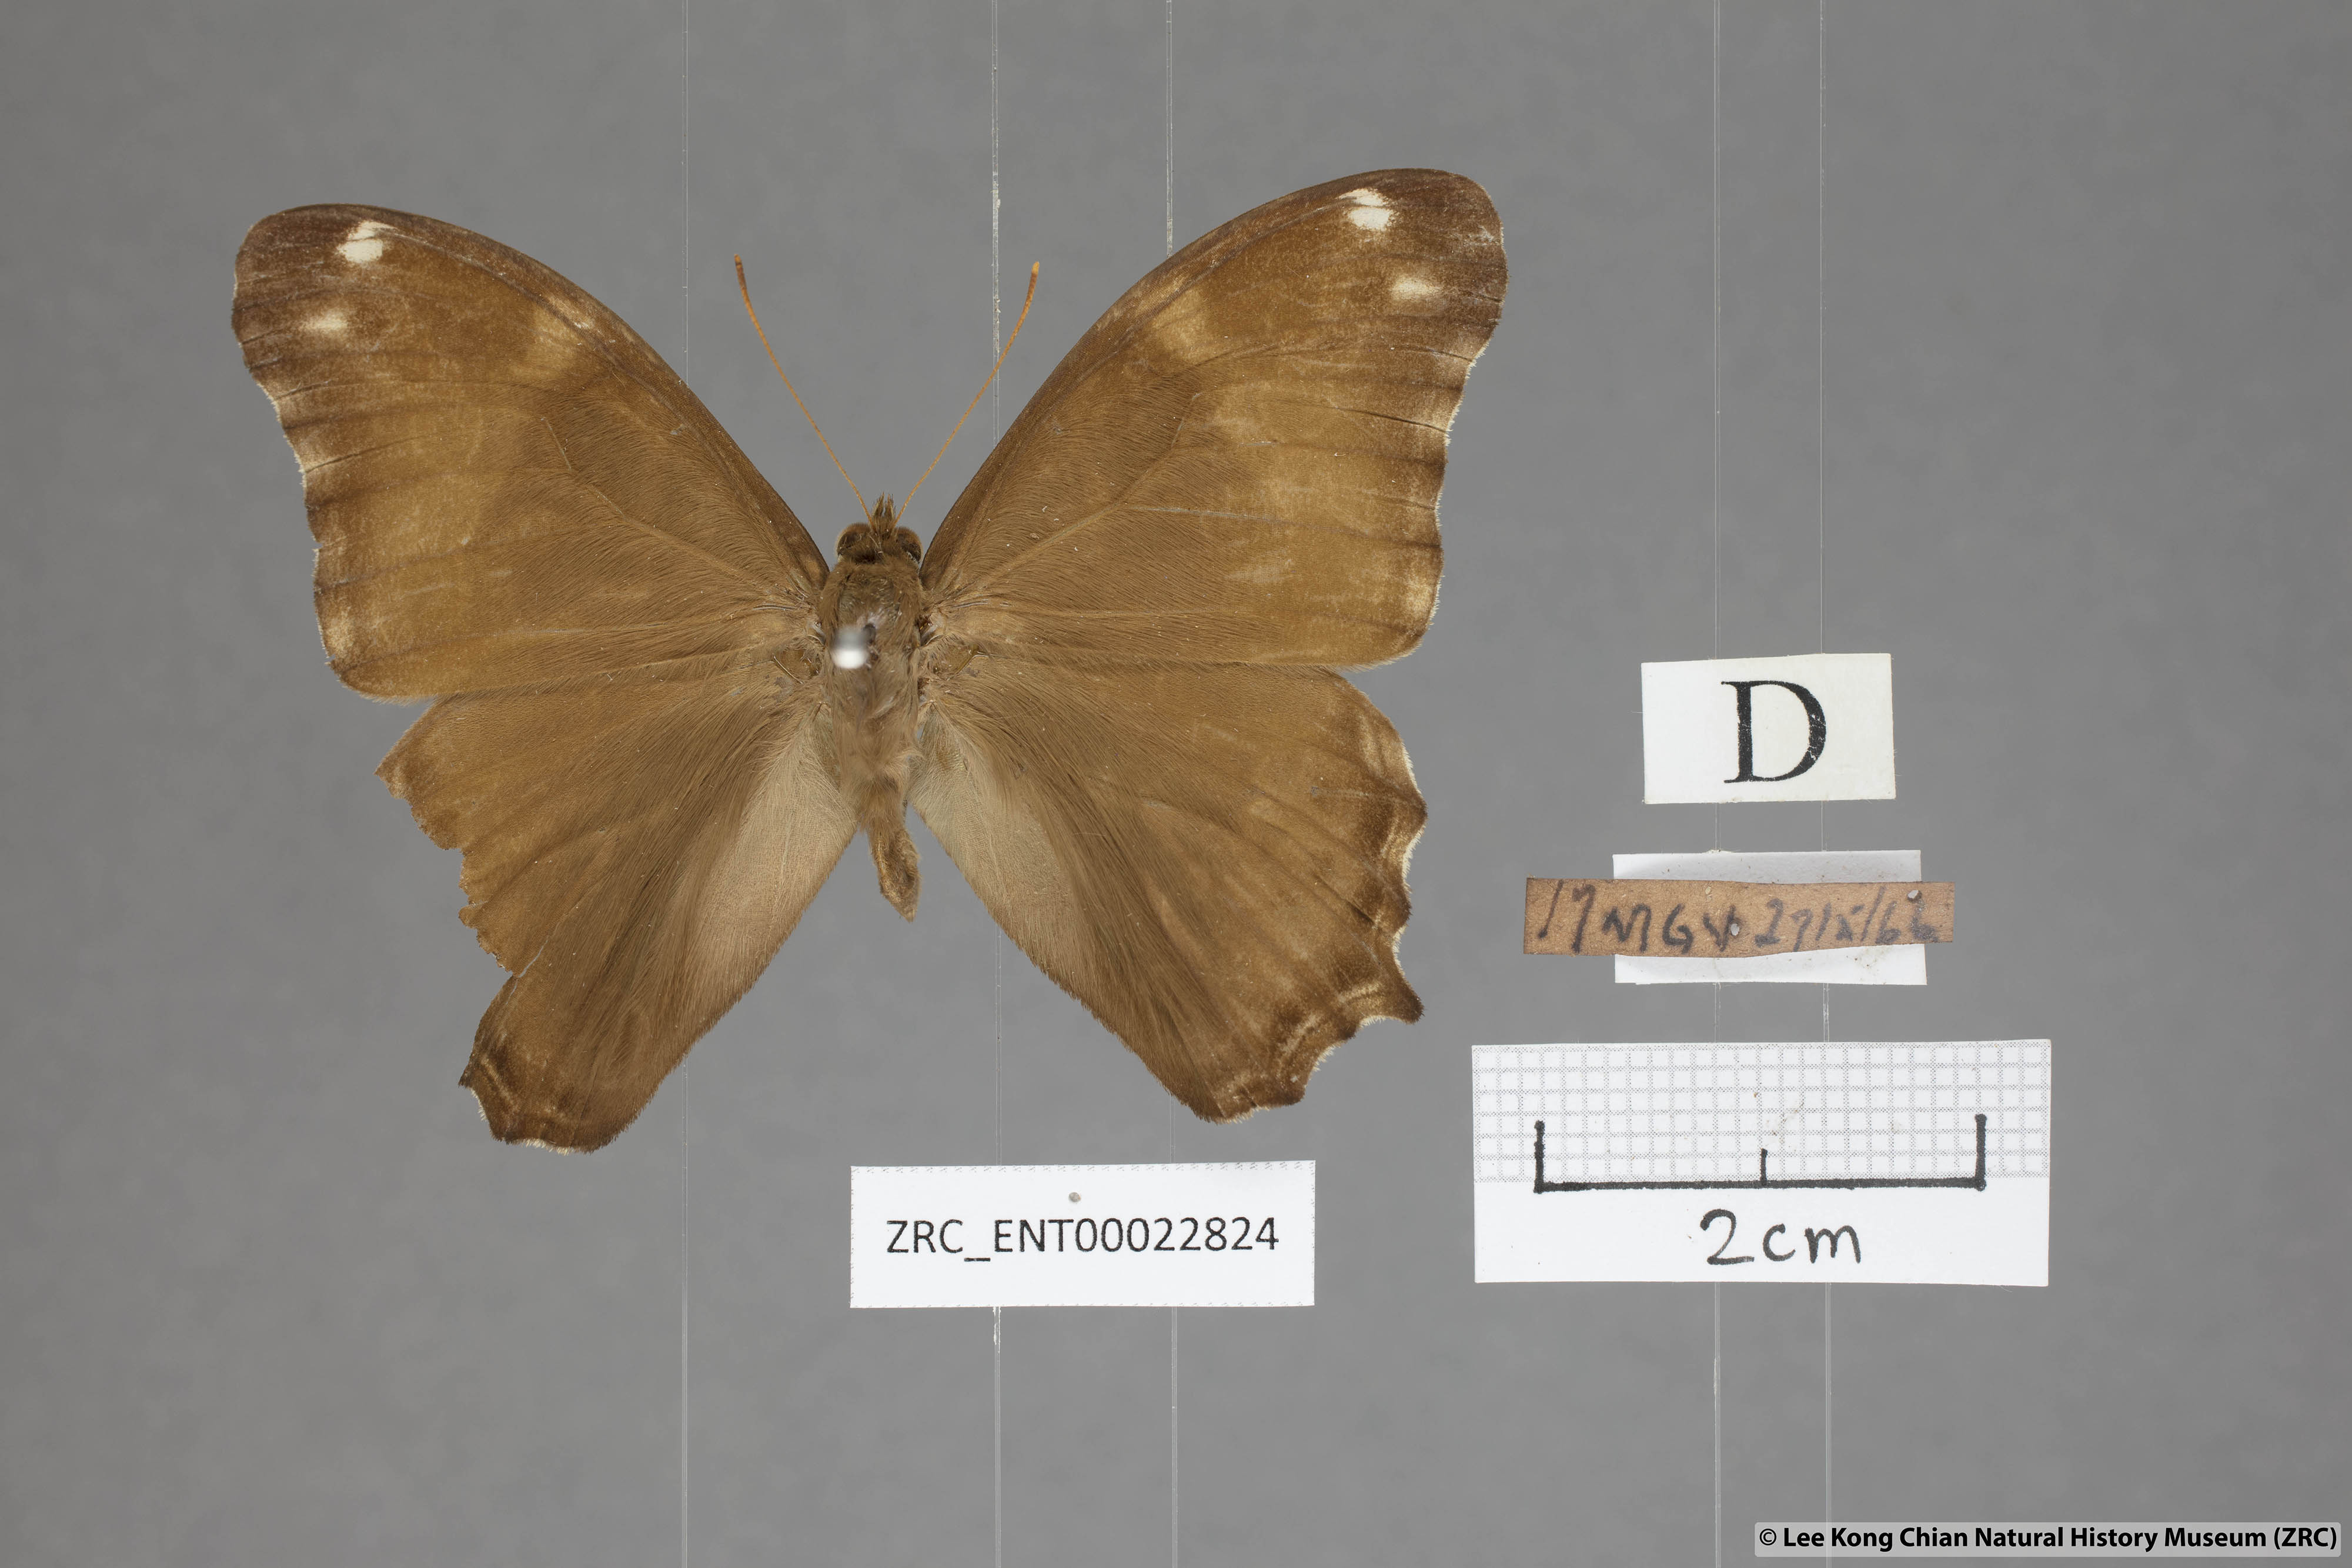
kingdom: Animalia
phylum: Arthropoda
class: Insecta
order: Lepidoptera
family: Nymphalidae
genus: Lethe
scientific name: Lethe europa
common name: Bamboo treebrown
